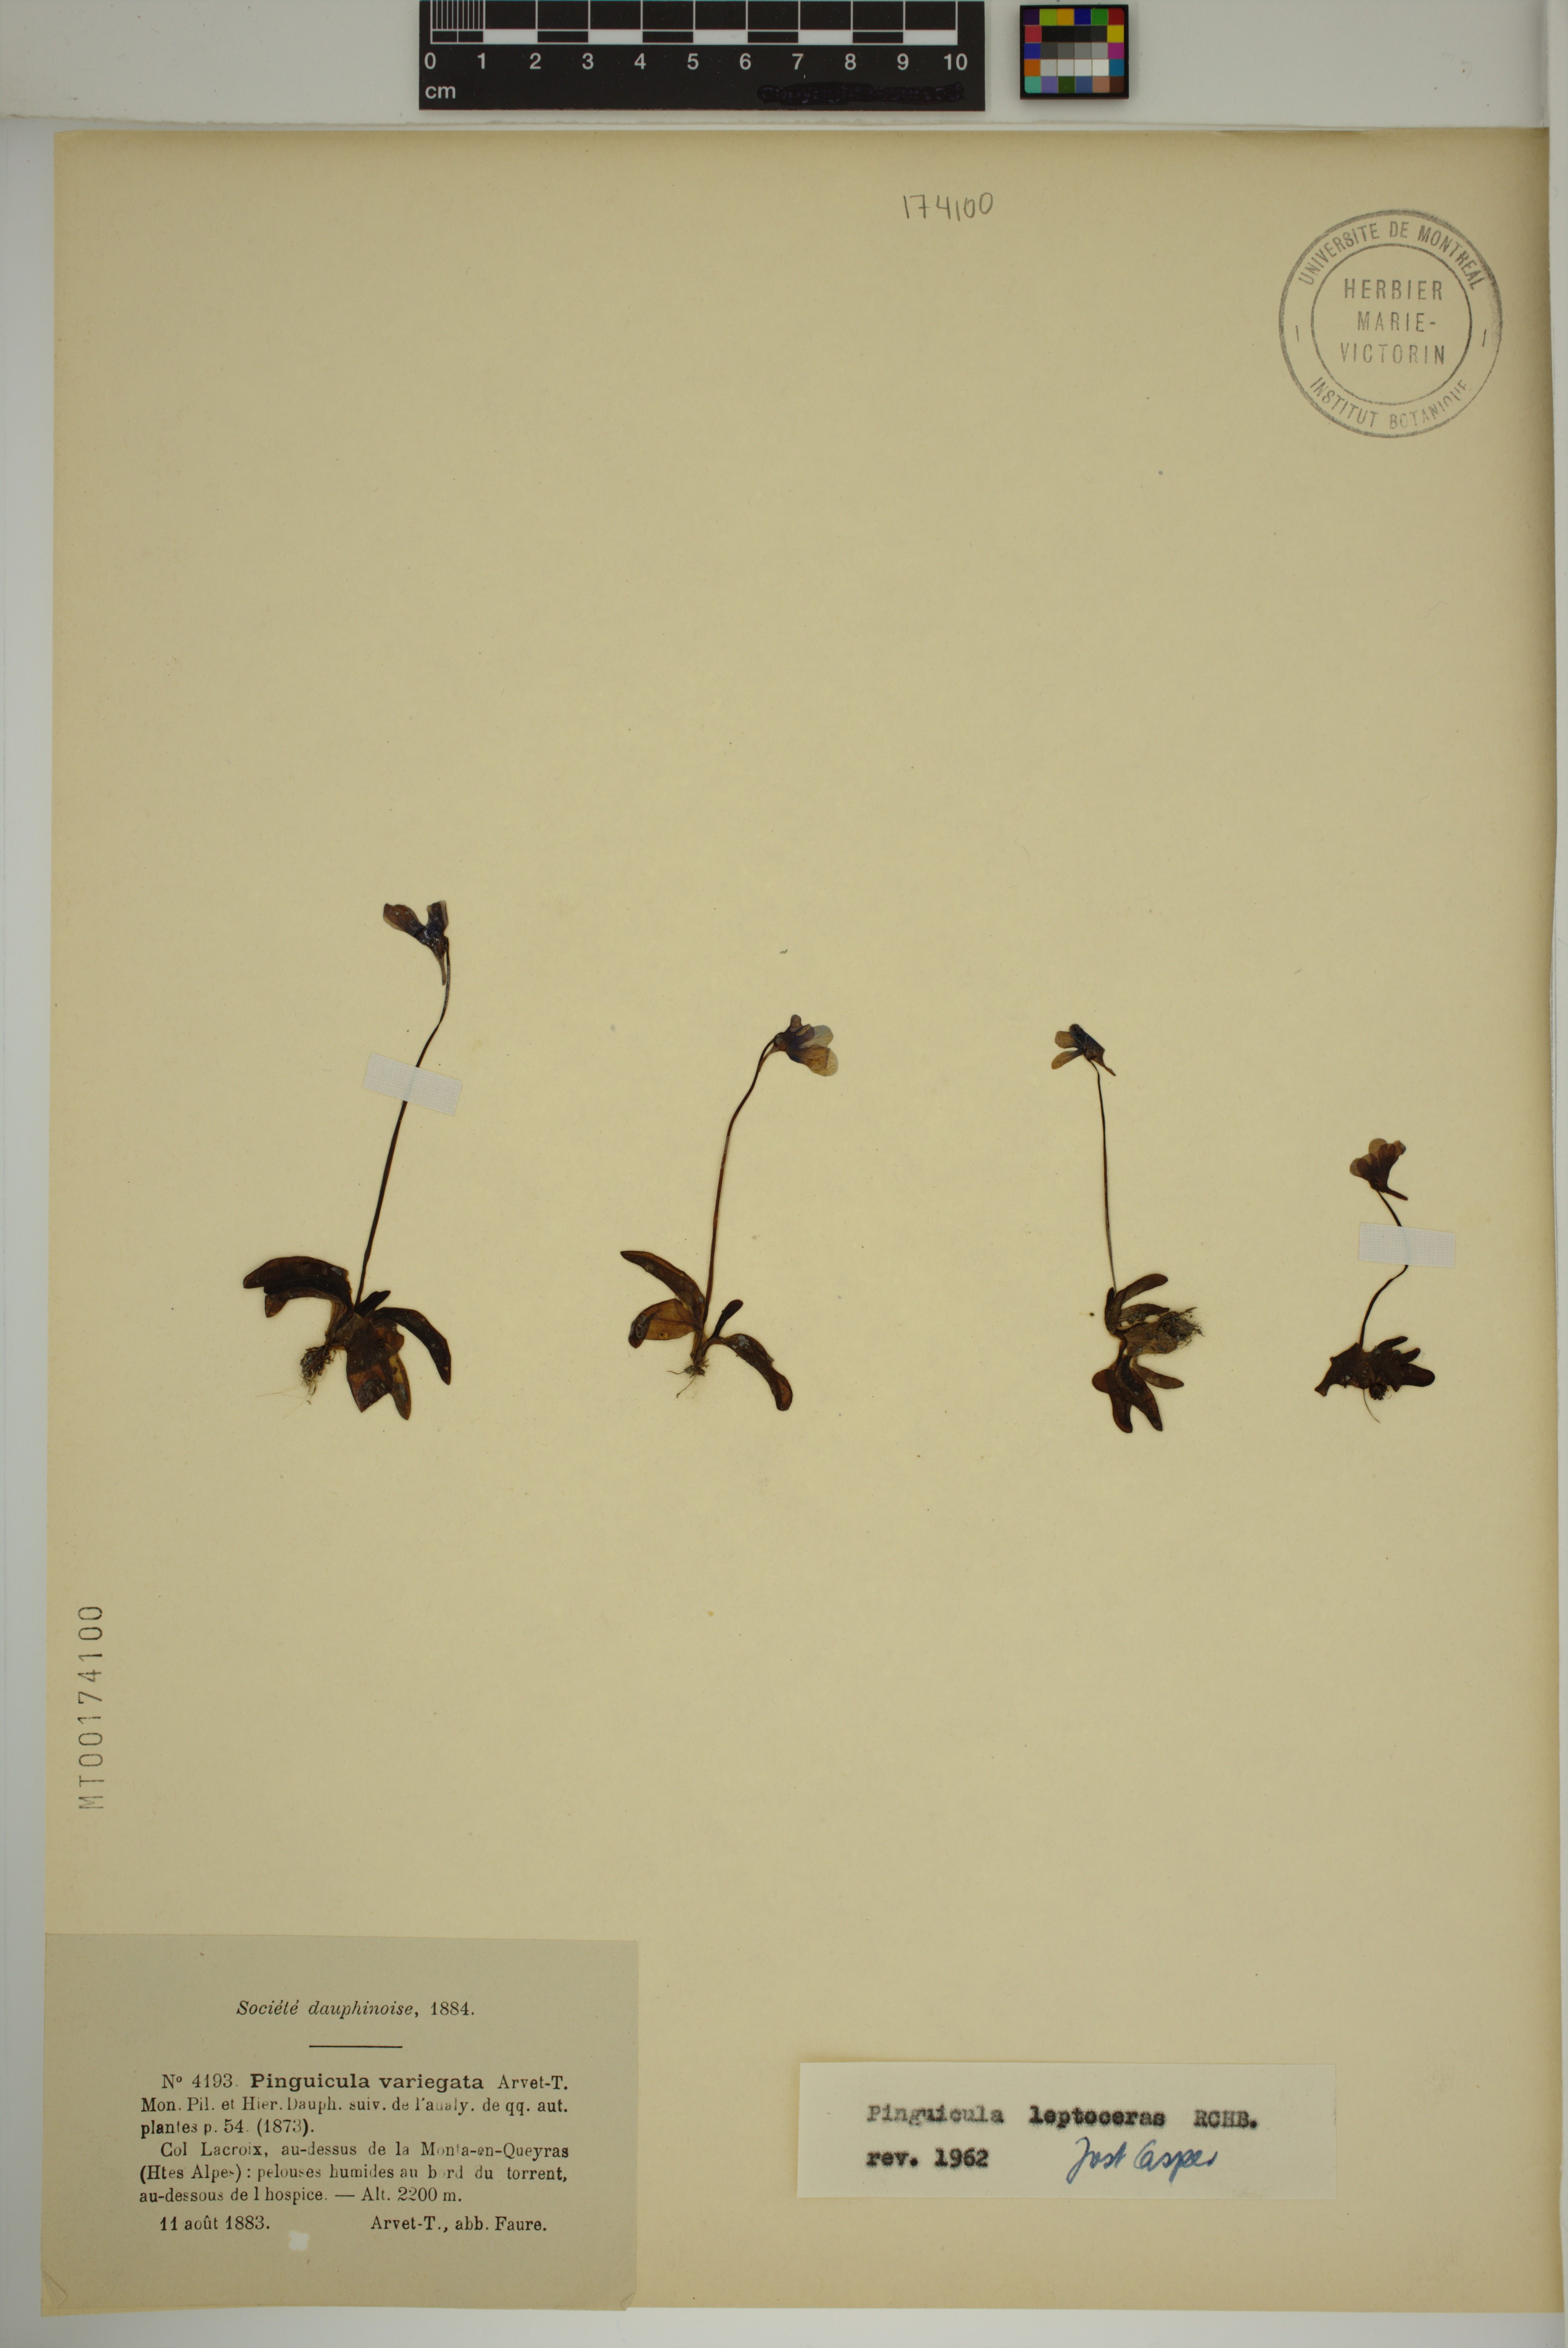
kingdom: Plantae
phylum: Tracheophyta
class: Magnoliopsida
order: Lamiales
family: Lentibulariaceae
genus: Pinguicula
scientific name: Pinguicula leptoceras
